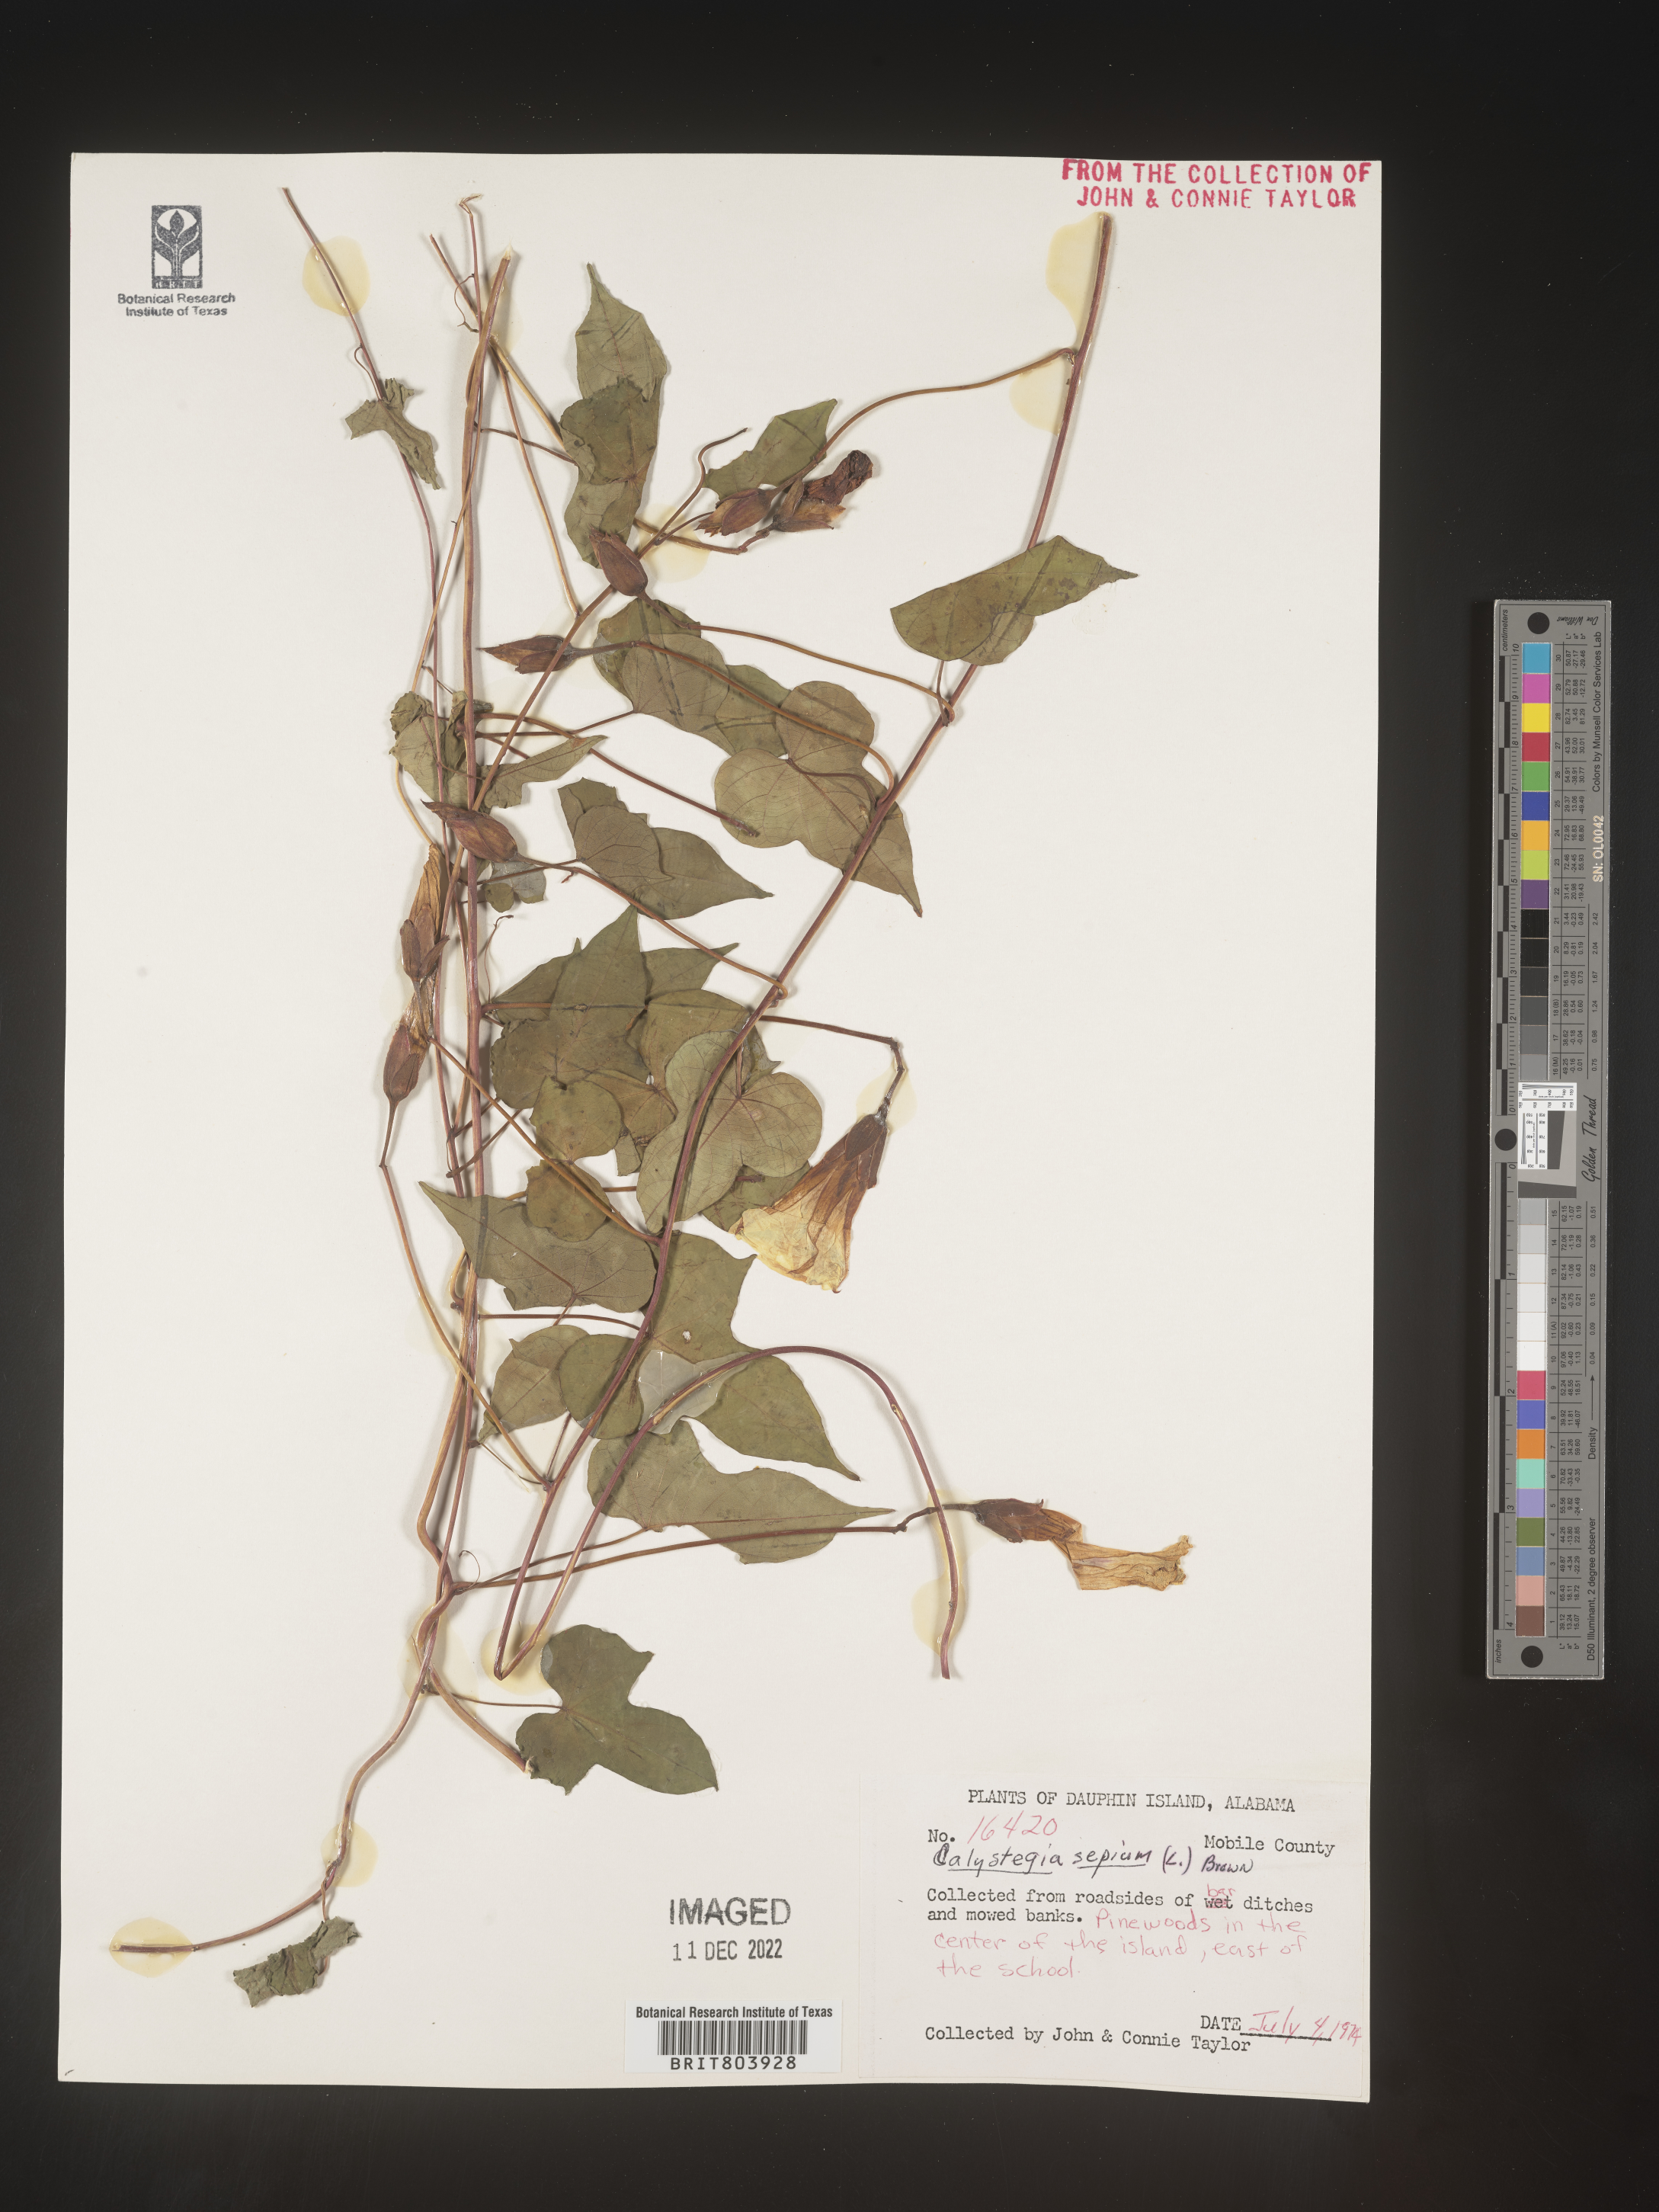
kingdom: Plantae
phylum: Tracheophyta
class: Magnoliopsida
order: Solanales
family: Convolvulaceae
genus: Calystegia
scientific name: Calystegia sepium
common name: Hedge bindweed
